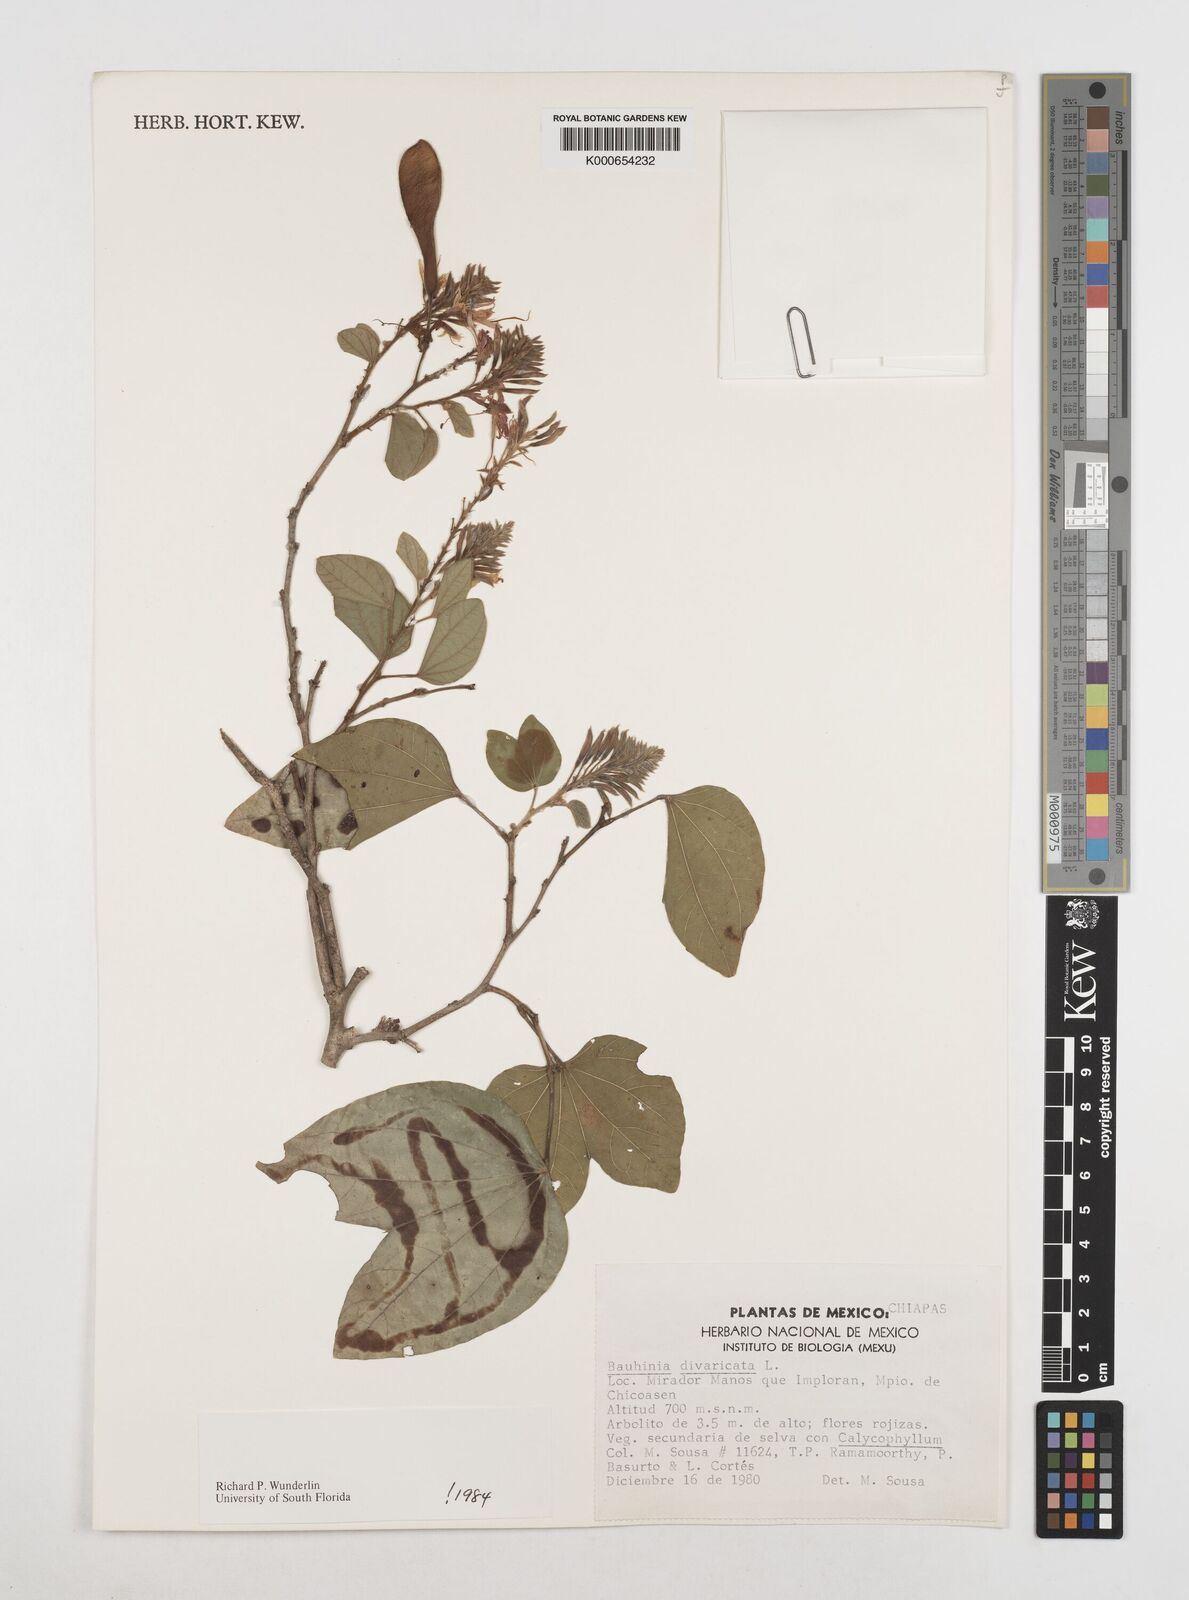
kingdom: Plantae
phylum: Tracheophyta
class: Magnoliopsida
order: Fabales
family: Fabaceae
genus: Bauhinia
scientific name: Bauhinia divaricata
